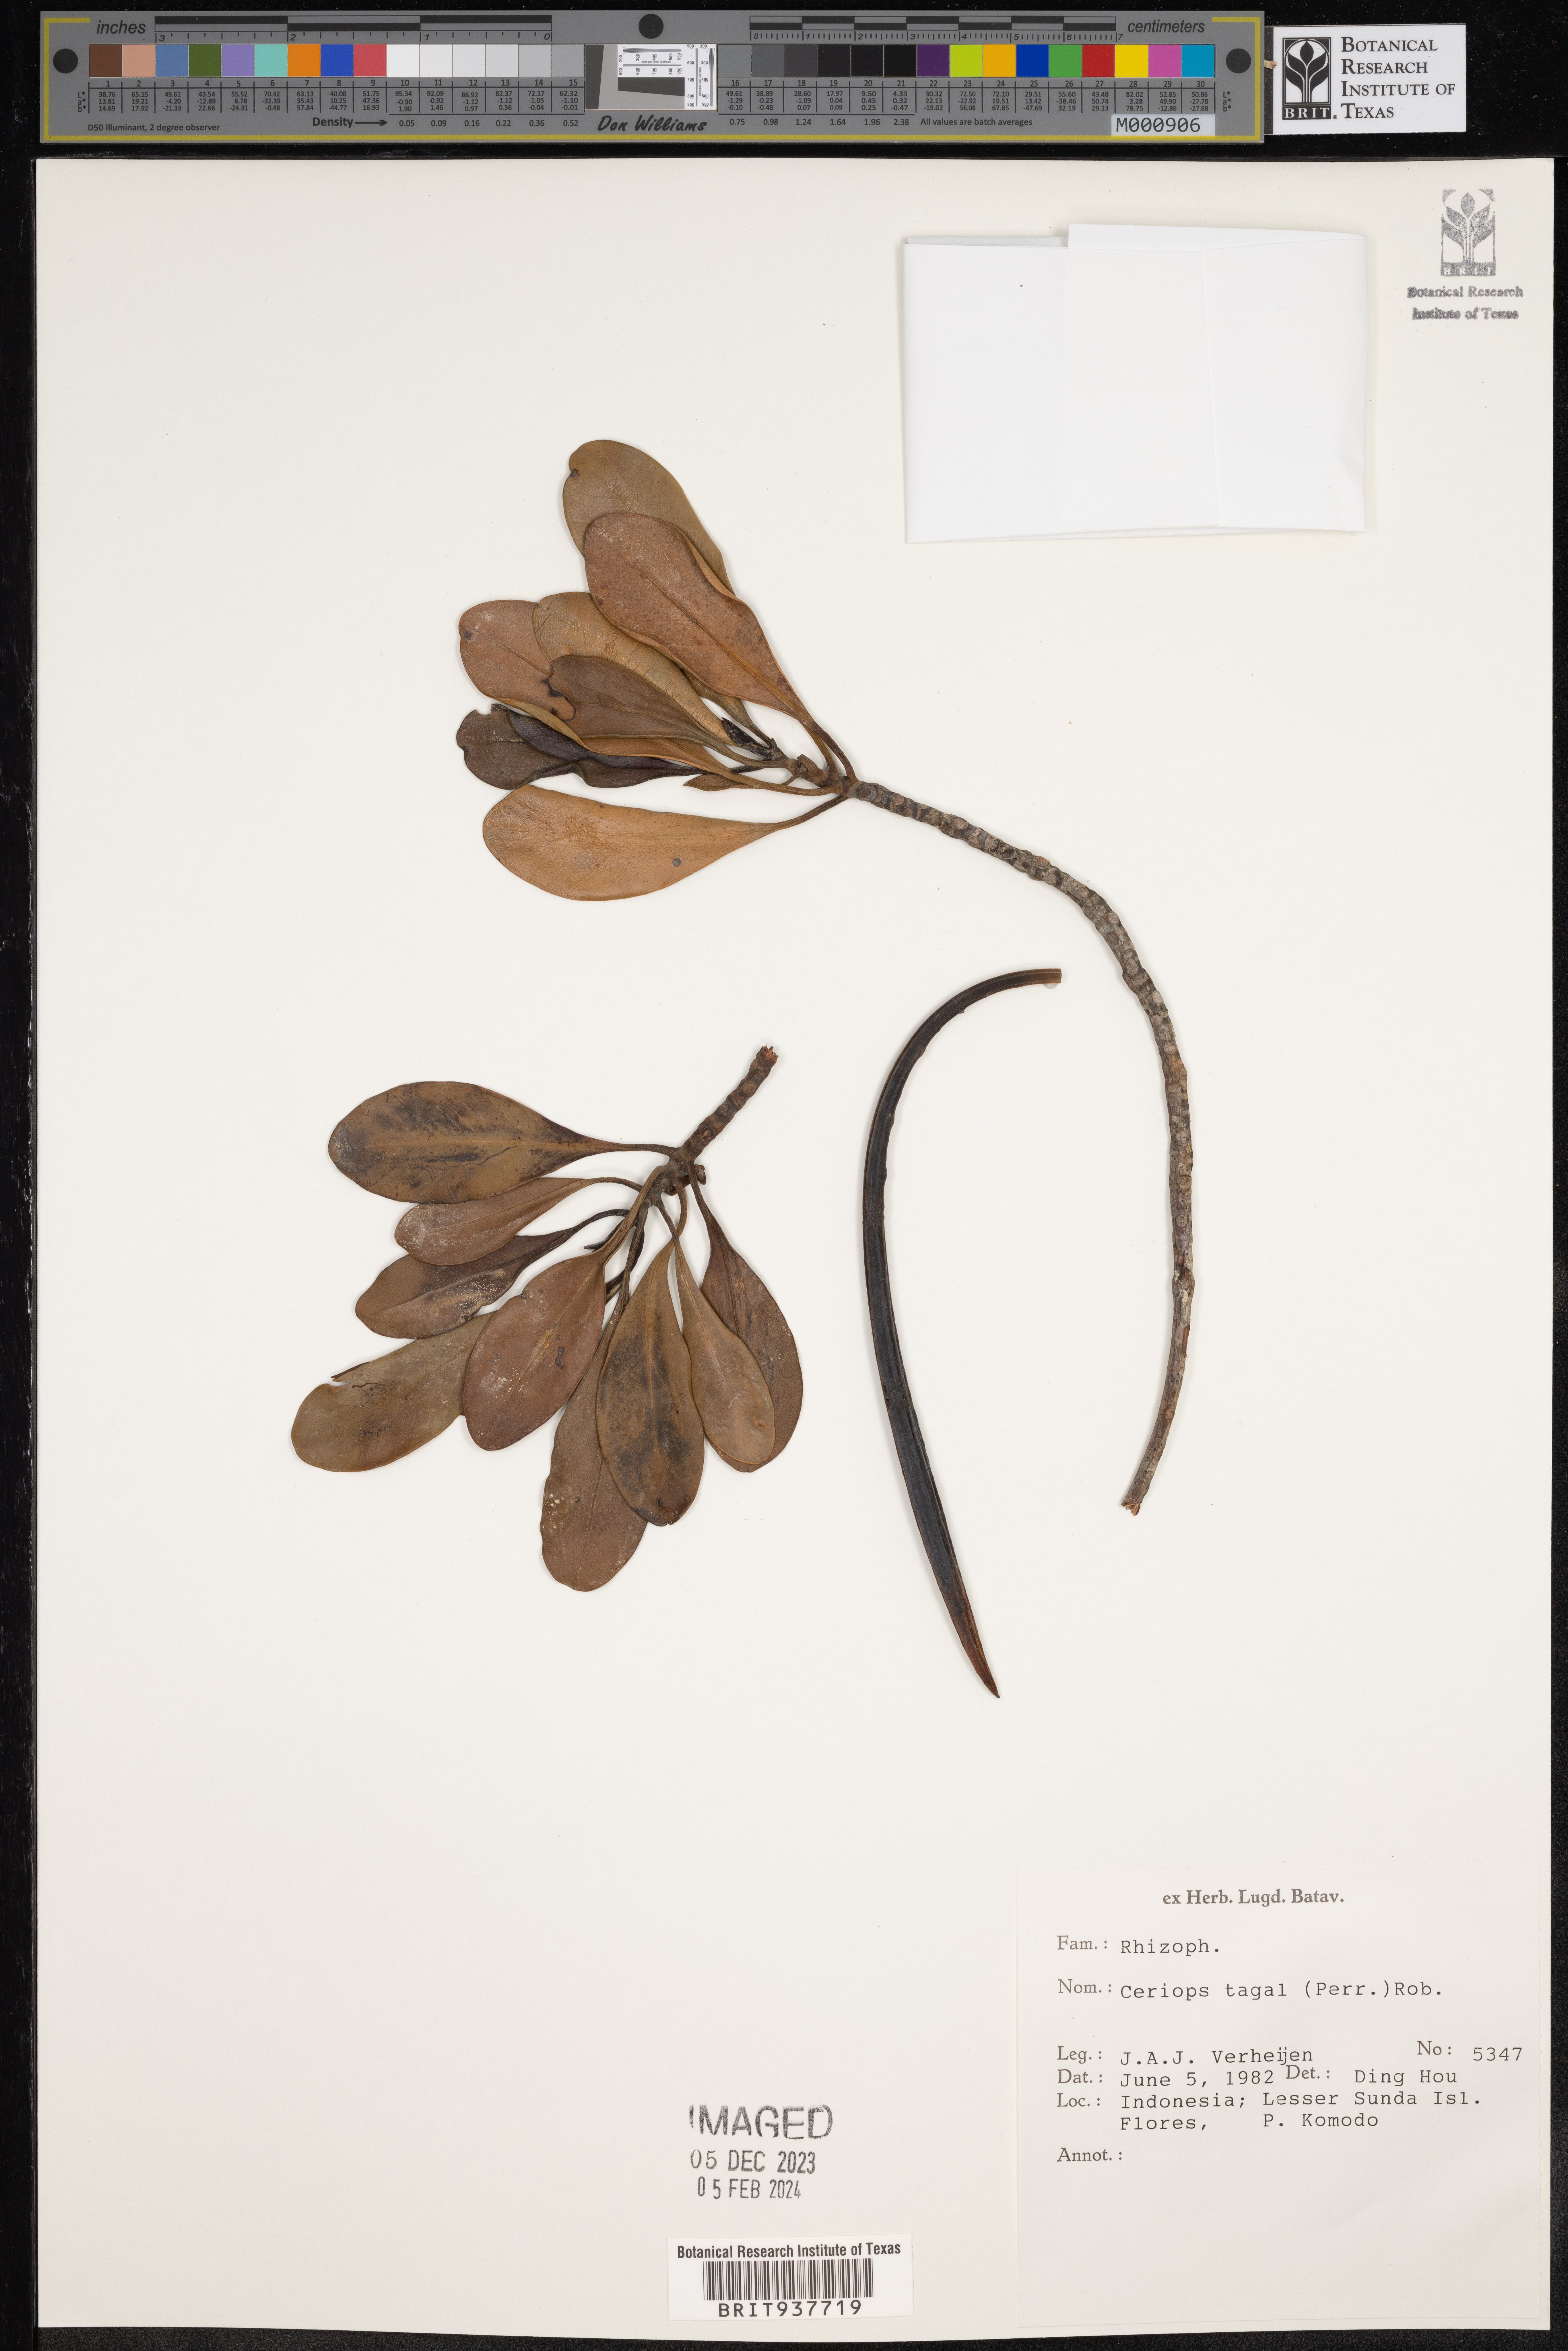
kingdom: Plantae
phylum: Tracheophyta
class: Magnoliopsida
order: Malpighiales
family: Rhizophoraceae
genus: Ceriops
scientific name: Ceriops tagal
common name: Spurred mangrove
